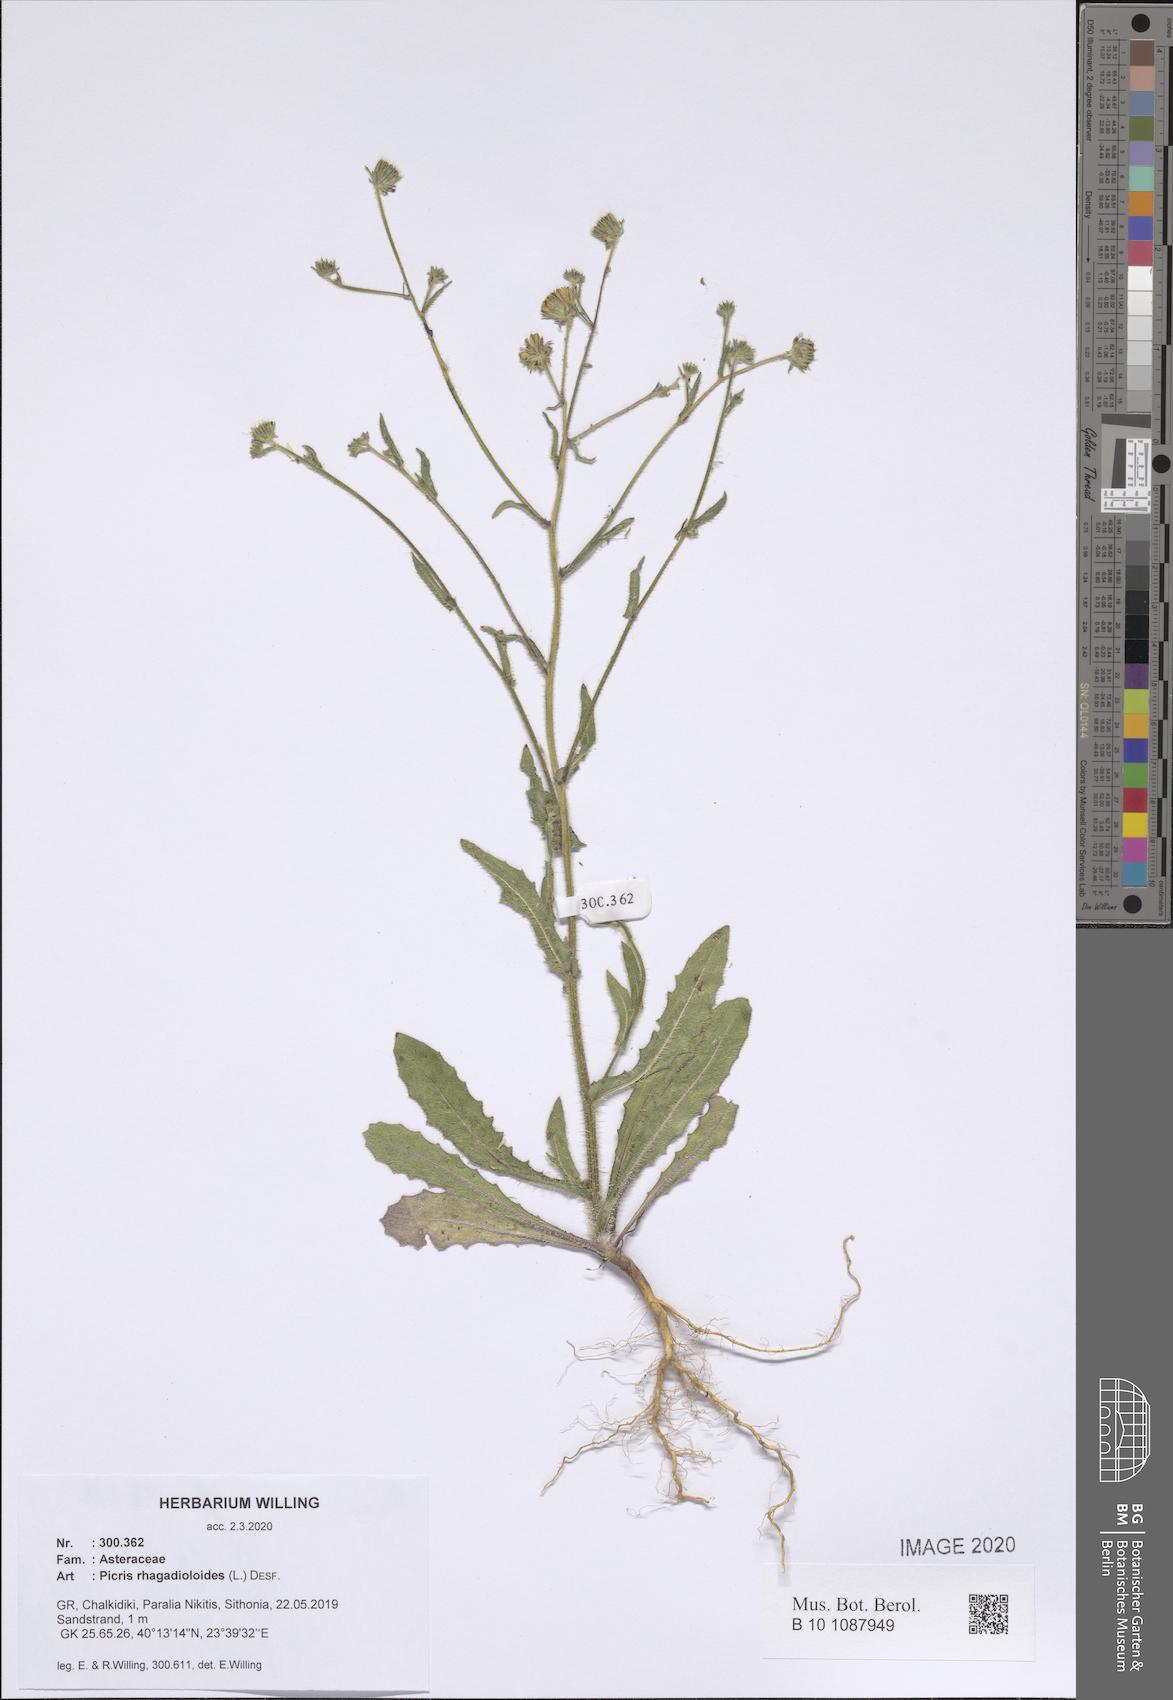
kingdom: Plantae
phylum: Tracheophyta
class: Magnoliopsida
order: Asterales
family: Asteraceae
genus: Picris
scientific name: Picris rhagadioloides
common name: Oxtongue
